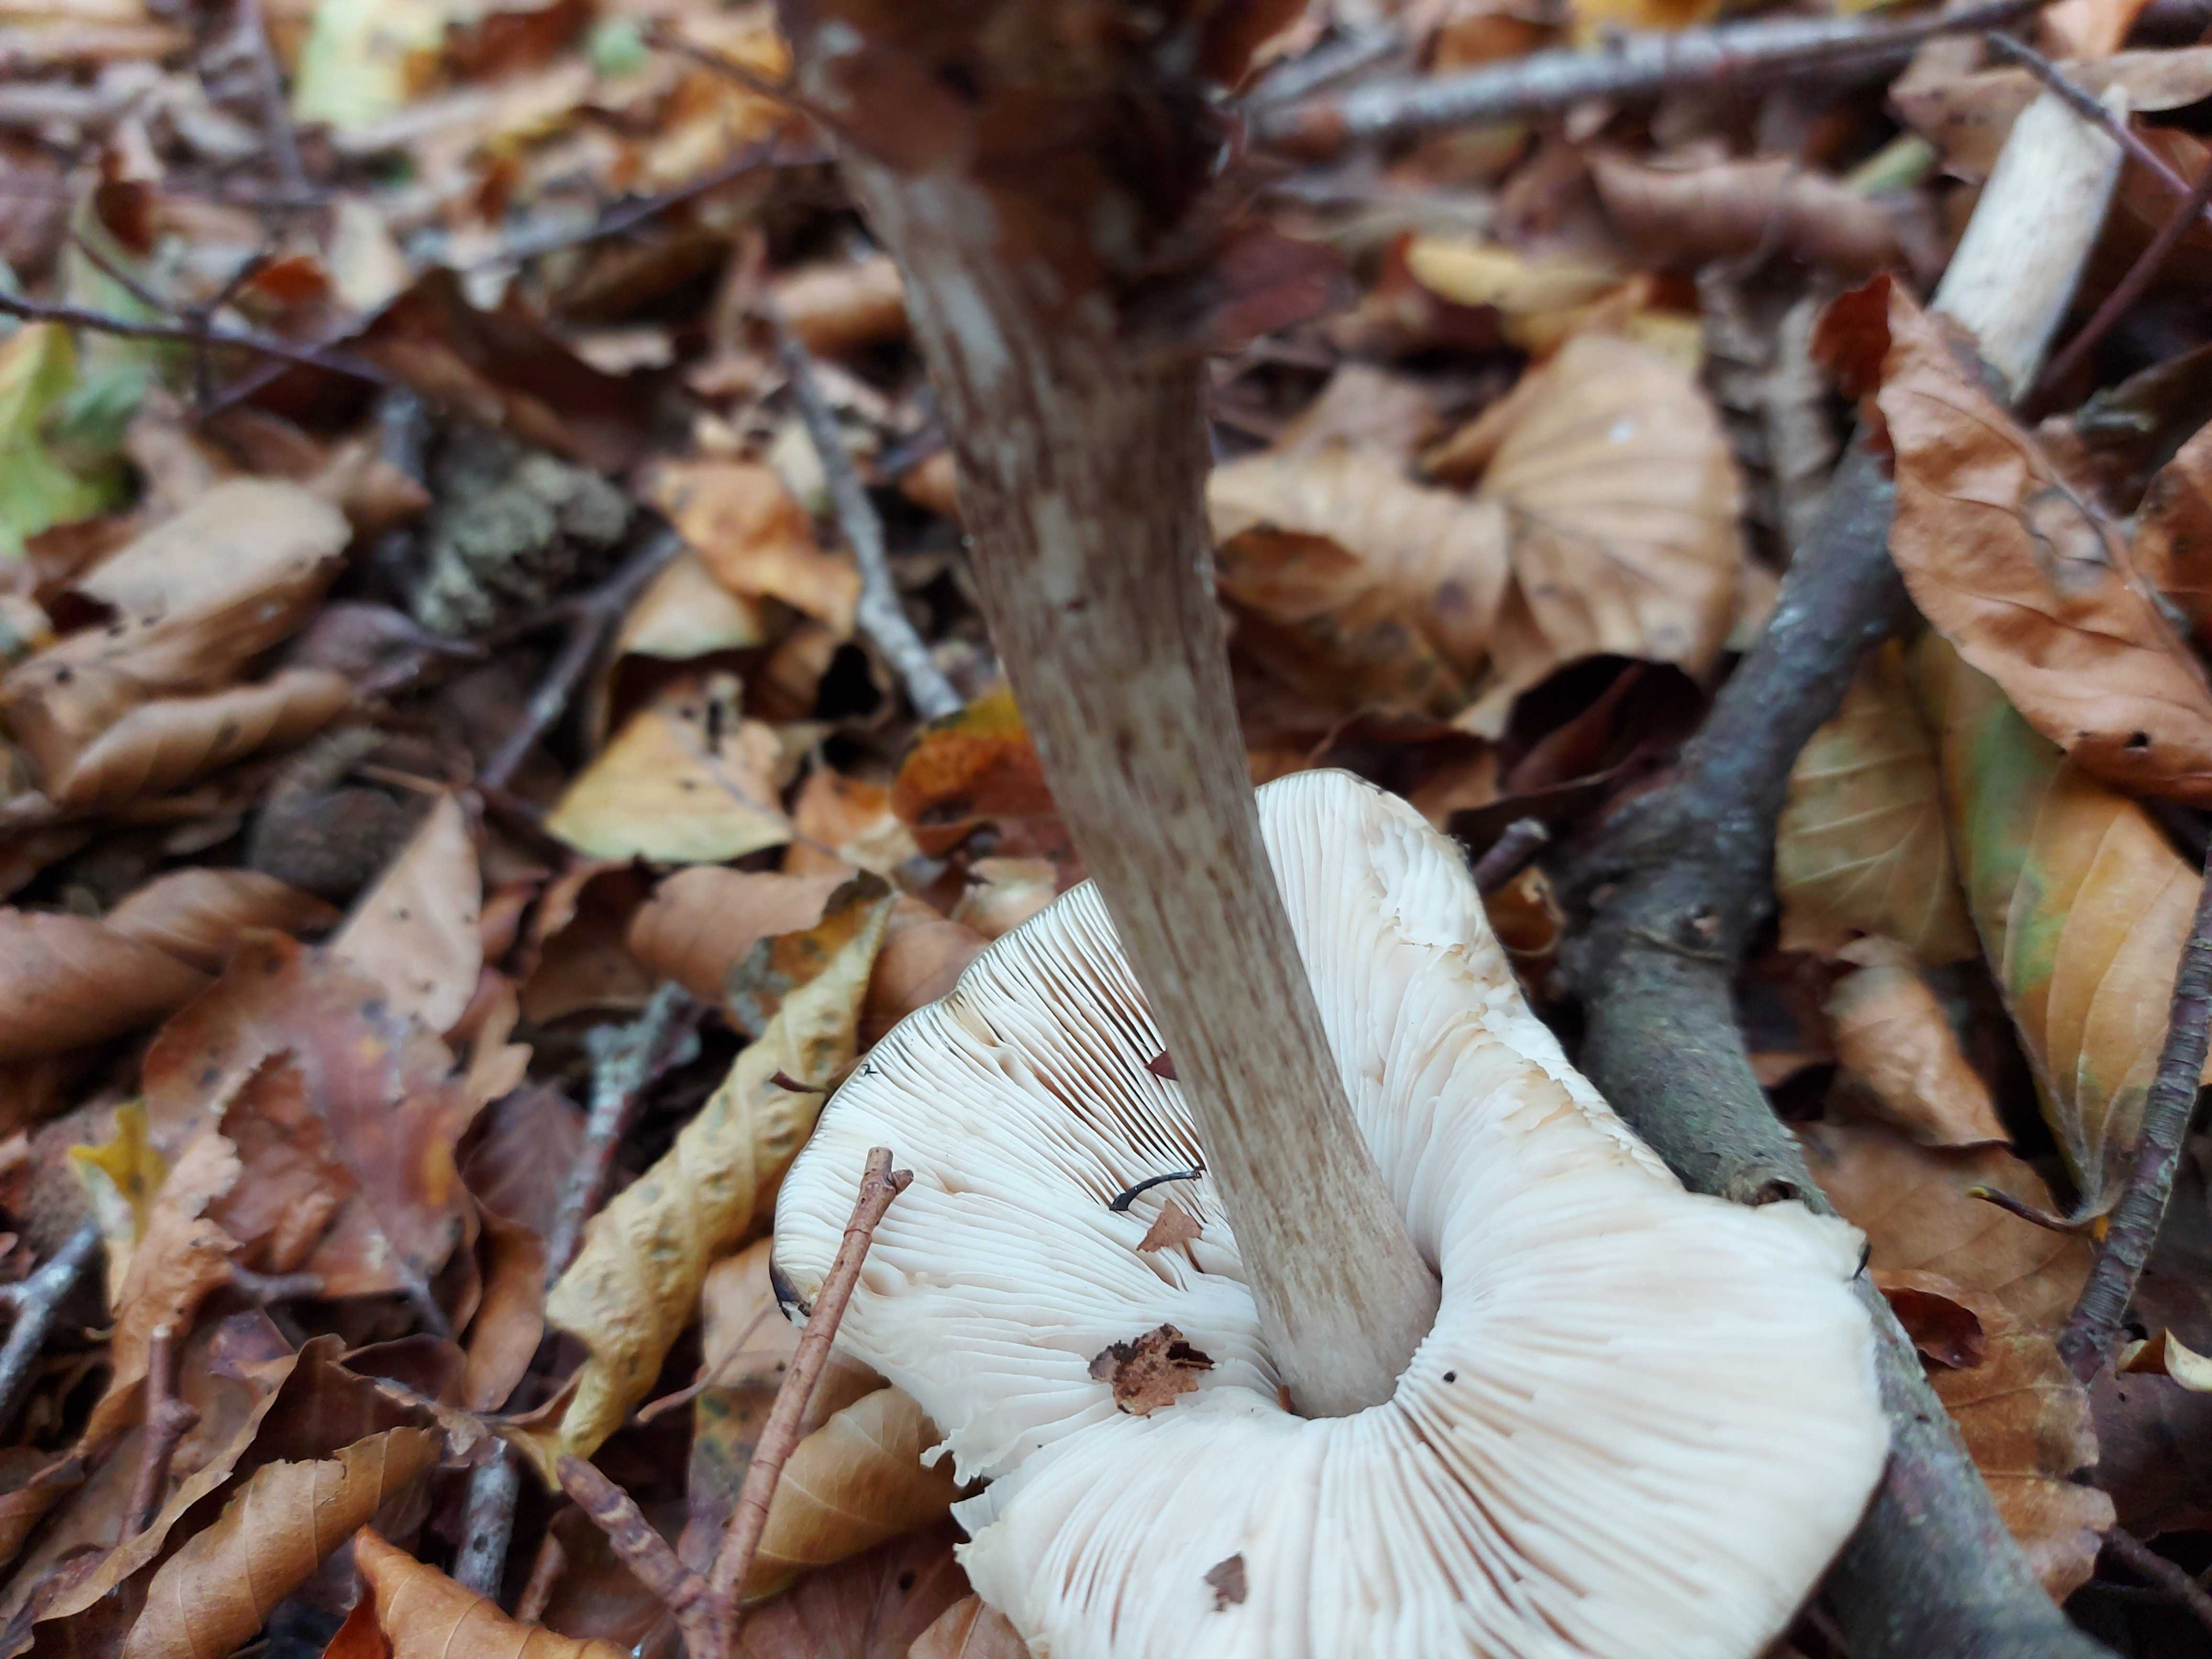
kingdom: Fungi
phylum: Basidiomycota
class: Agaricomycetes
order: Agaricales
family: Pluteaceae
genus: Pluteus
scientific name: Pluteus cervinus
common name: sodfarvet skærmhat
